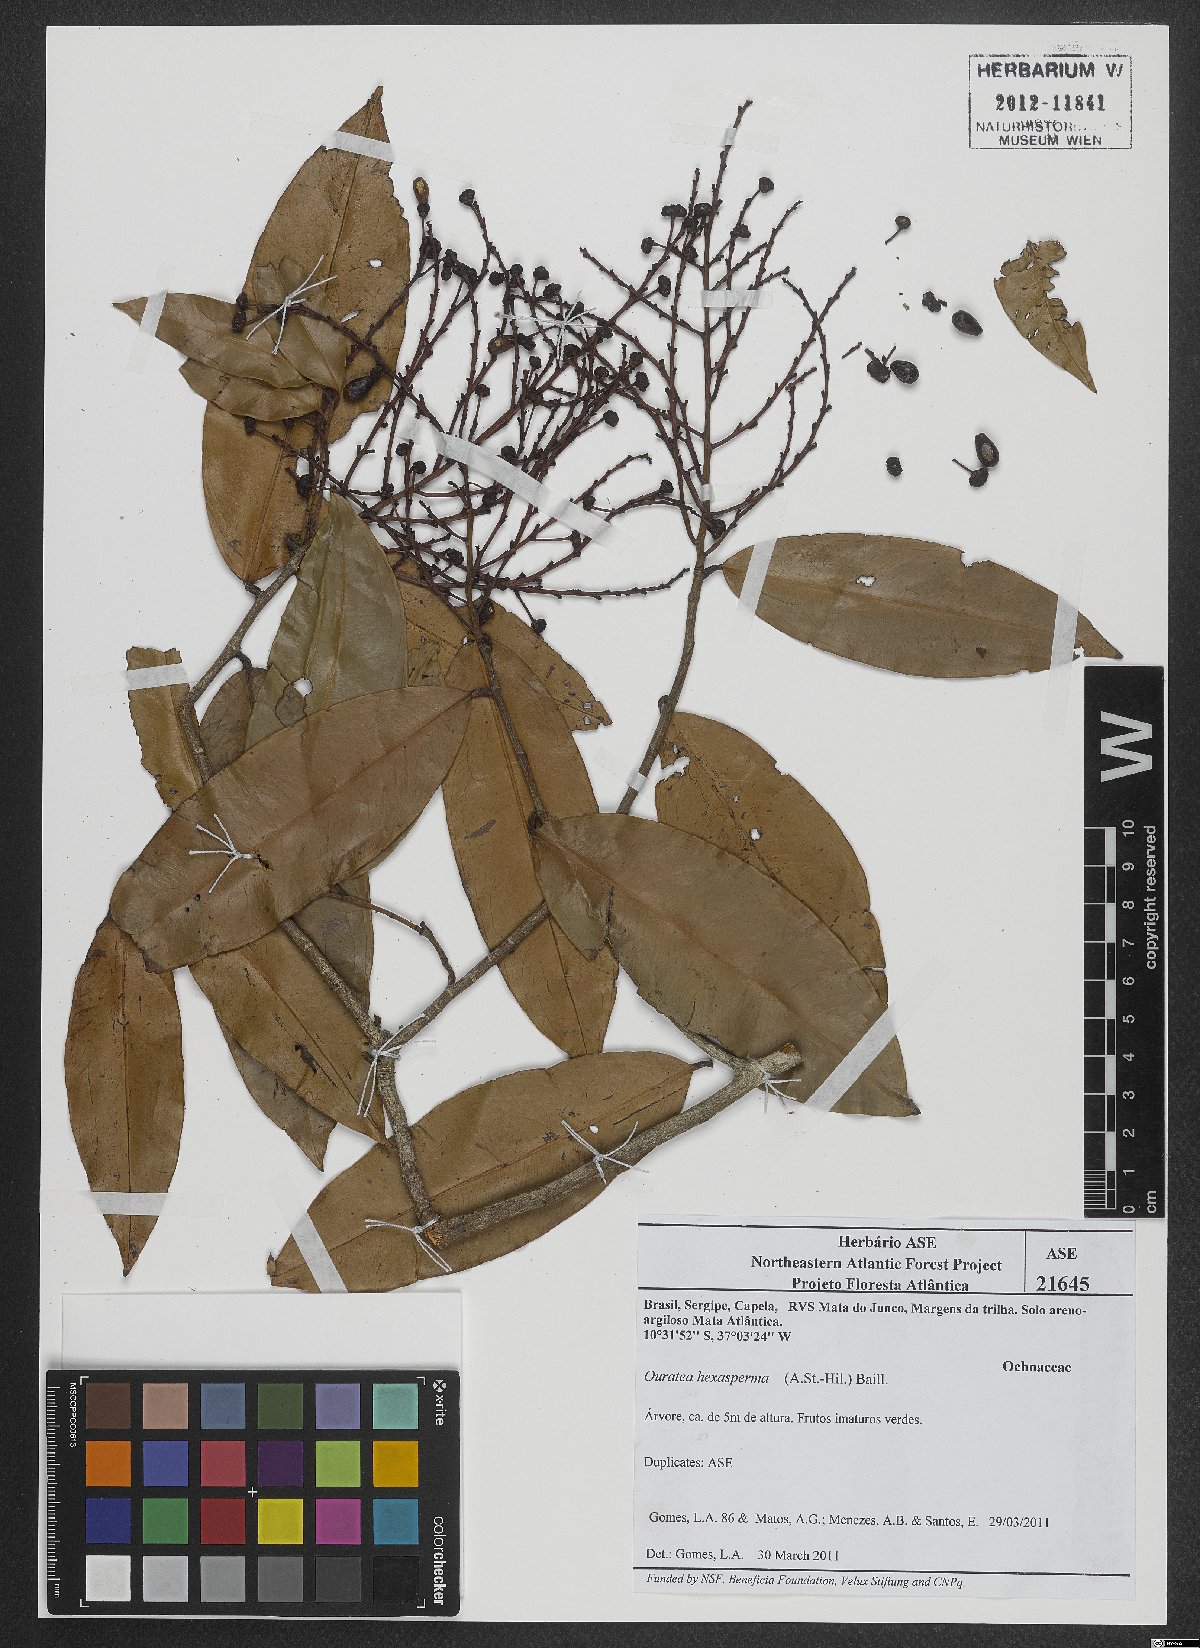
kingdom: Plantae
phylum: Tracheophyta
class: Magnoliopsida
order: Malpighiales
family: Ochnaceae
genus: Ouratea
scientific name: Ouratea hexasperma
